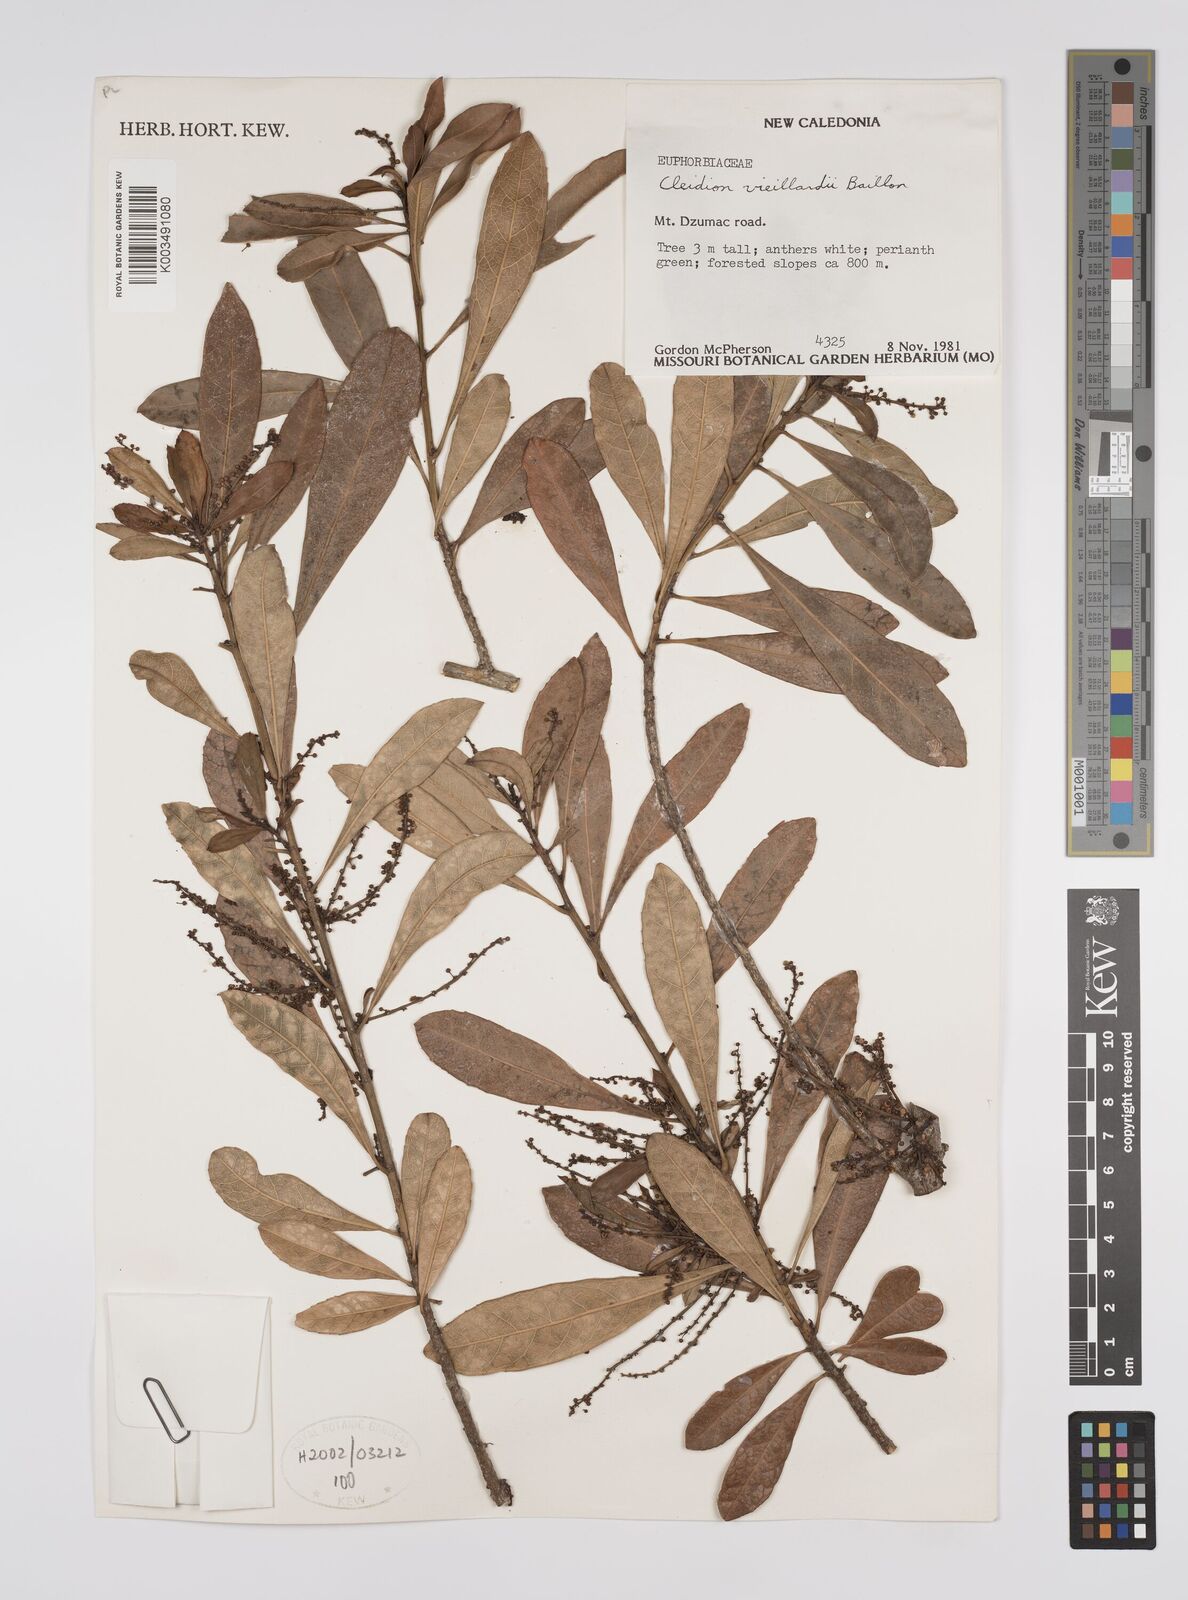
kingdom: Plantae
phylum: Tracheophyta
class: Magnoliopsida
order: Malpighiales
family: Euphorbiaceae
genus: Cleidion
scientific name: Cleidion vieillardii
